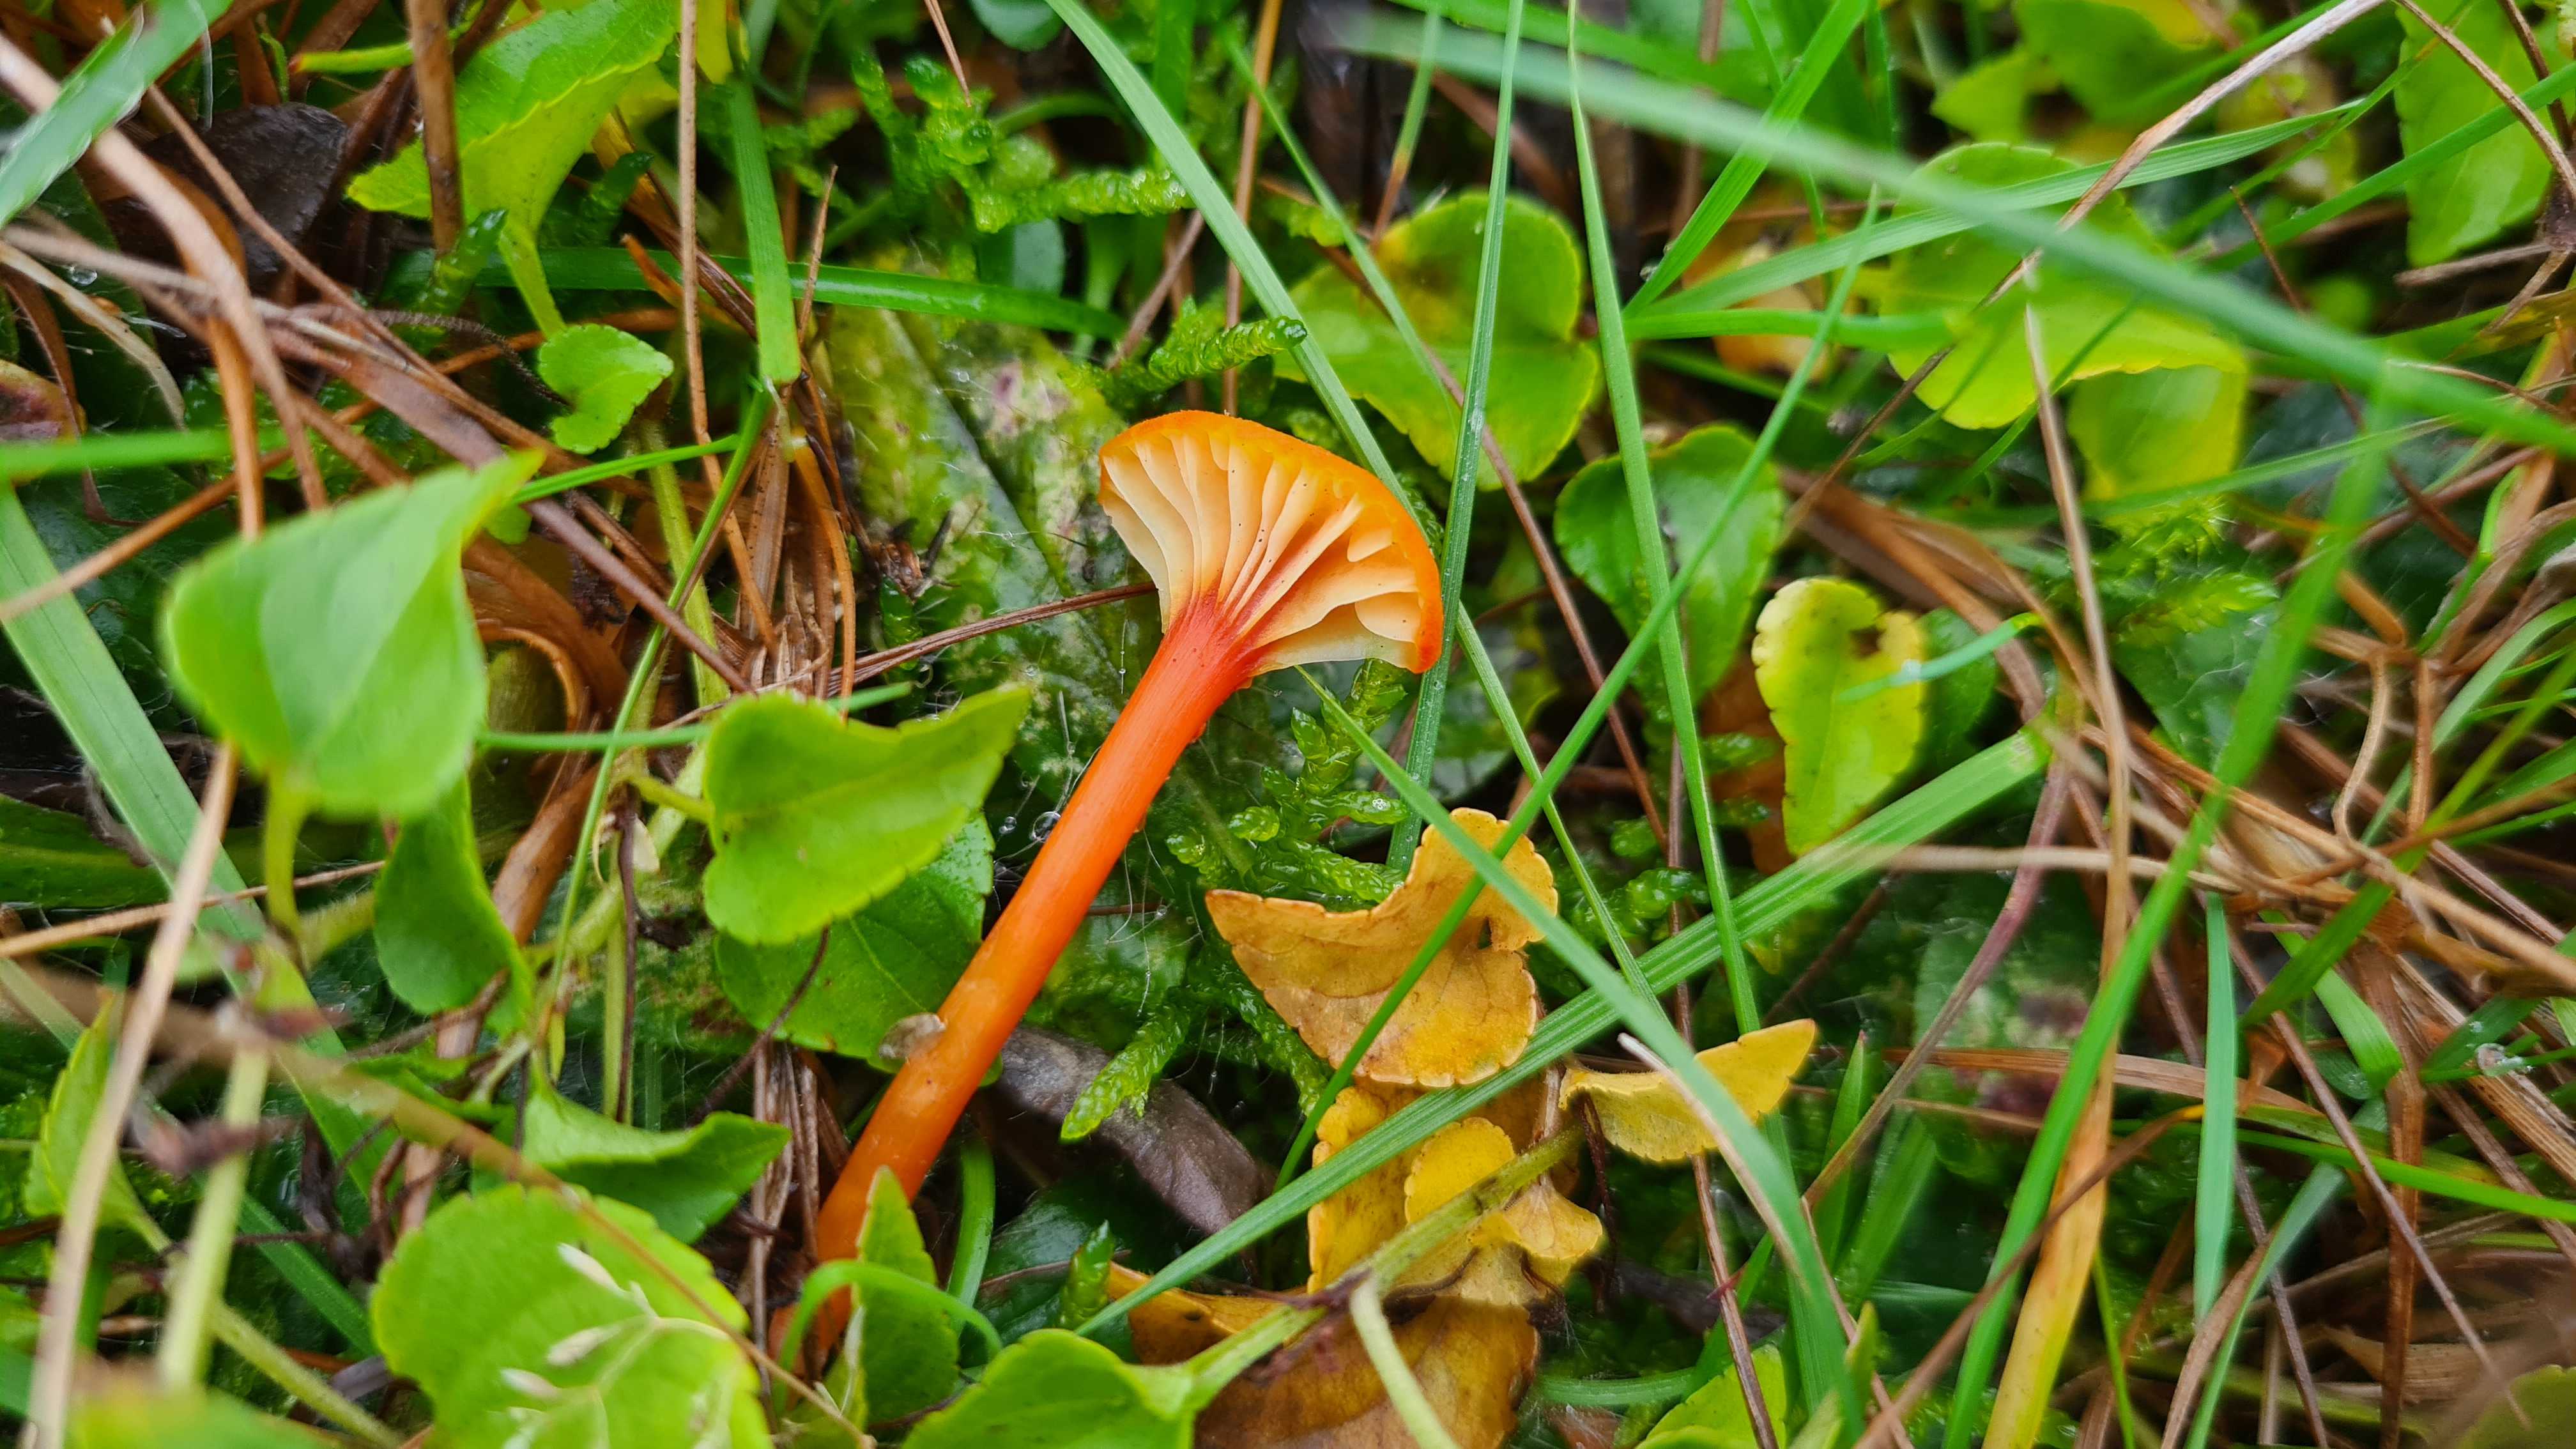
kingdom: Fungi
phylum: Basidiomycota
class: Agaricomycetes
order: Agaricales
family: Hygrophoraceae
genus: Hygrocybe
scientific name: Hygrocybe cantharellus
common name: kantarel-vokshat
